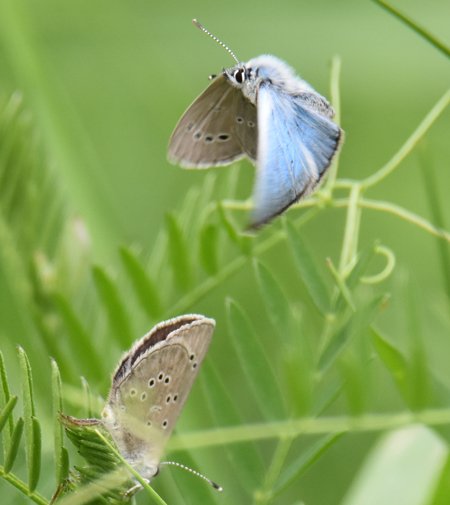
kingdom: Animalia
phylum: Arthropoda
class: Insecta
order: Lepidoptera
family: Lycaenidae
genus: Glaucopsyche
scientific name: Glaucopsyche lygdamus
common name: Silvery Blue
